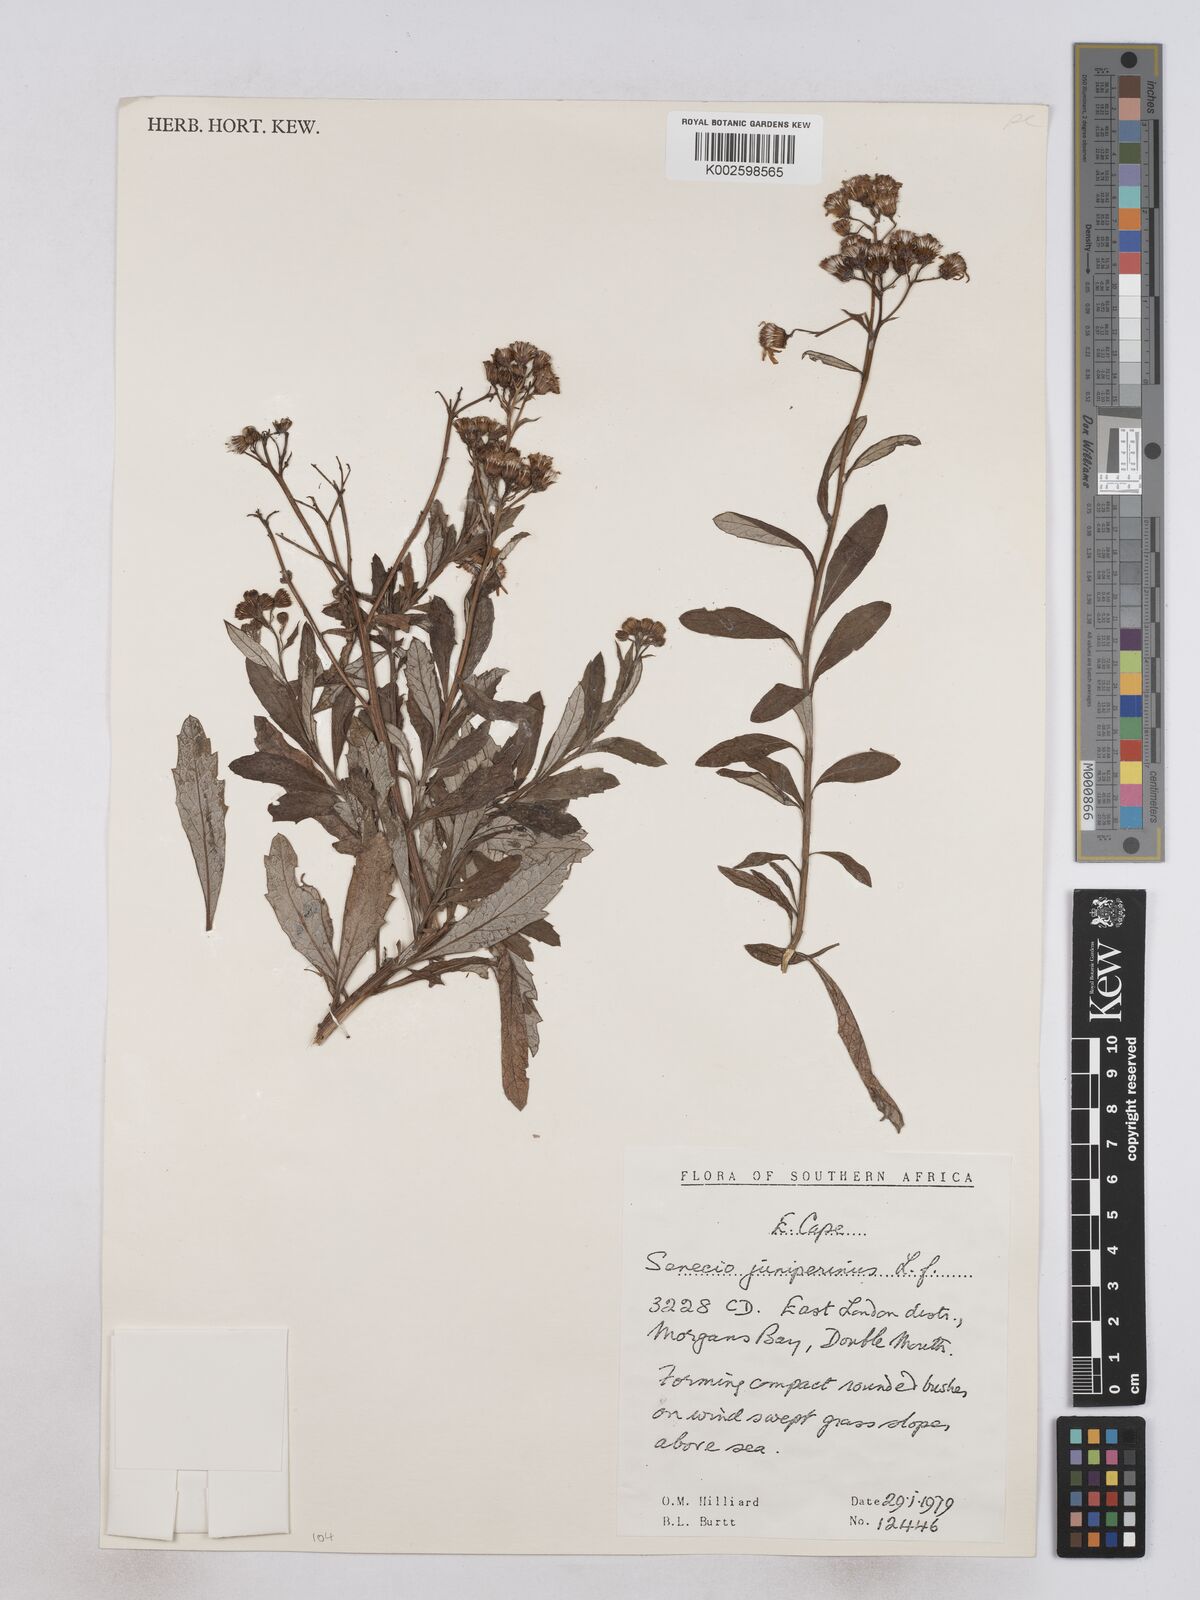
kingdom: Plantae
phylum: Tracheophyta
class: Magnoliopsida
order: Asterales
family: Asteraceae
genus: Senecio
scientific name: Senecio juniperinus
